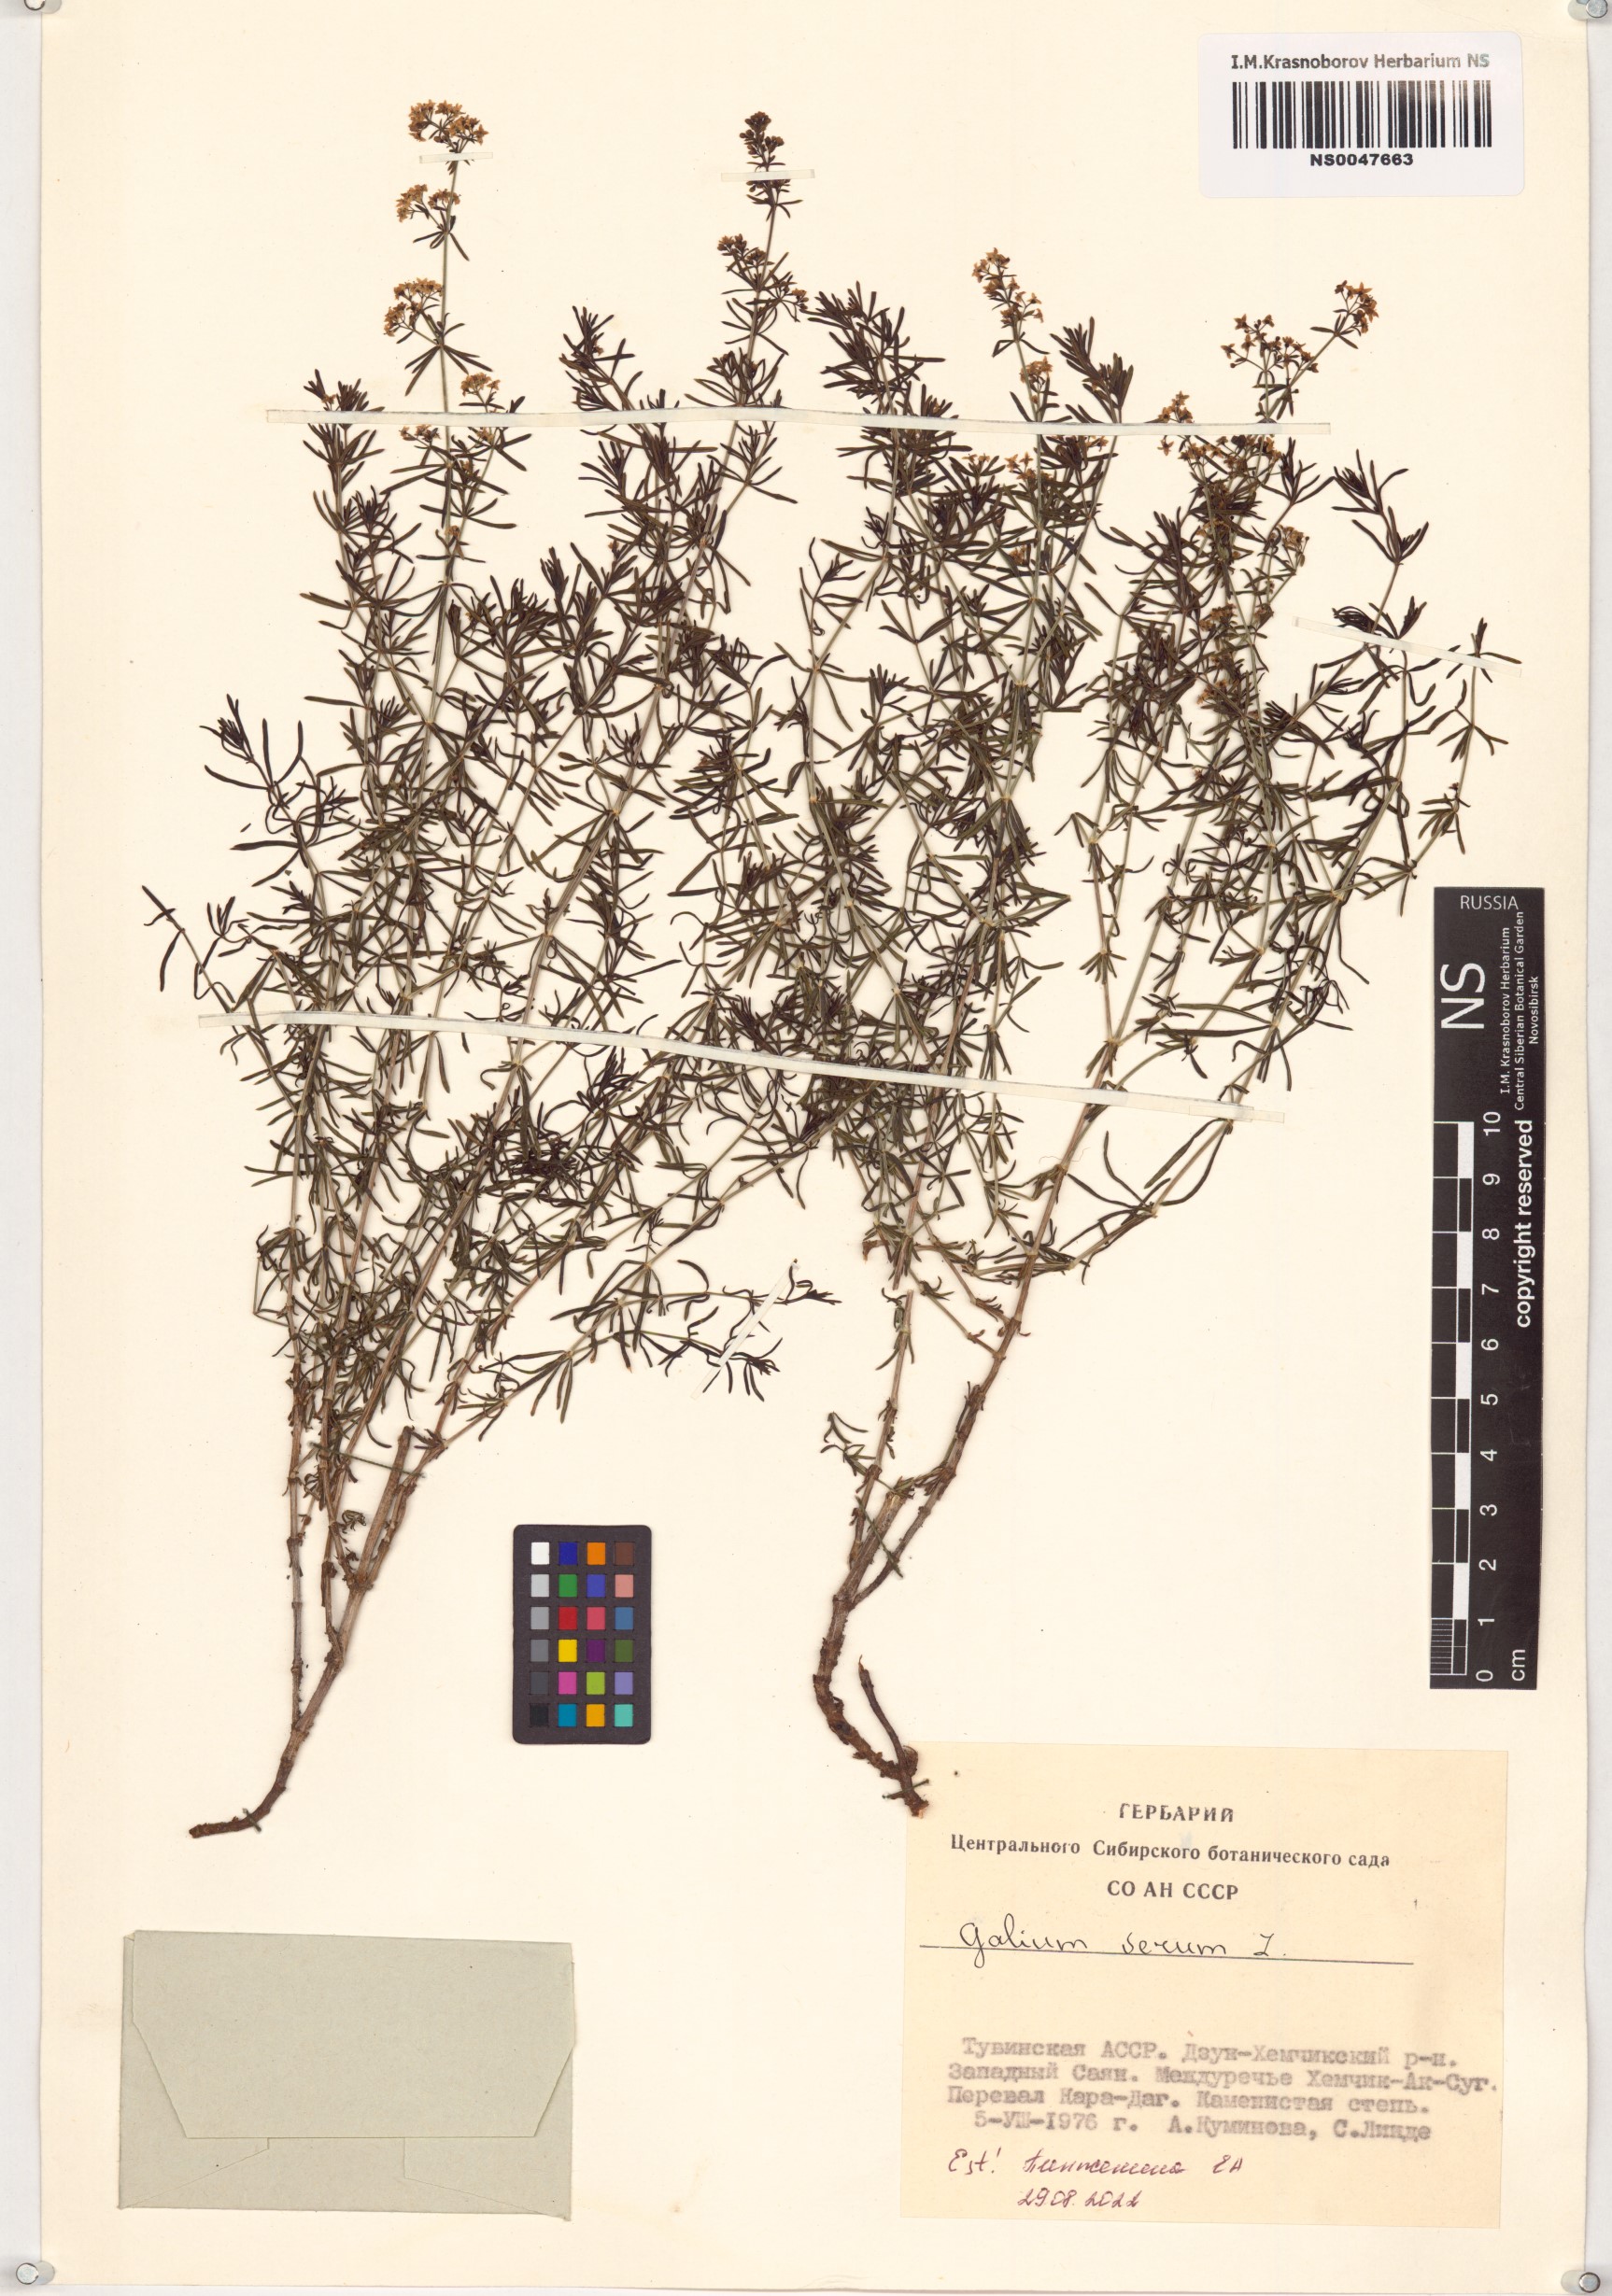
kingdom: Plantae
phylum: Tracheophyta
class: Magnoliopsida
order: Gentianales
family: Rubiaceae
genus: Galium
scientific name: Galium verum
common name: Lady's bedstraw
